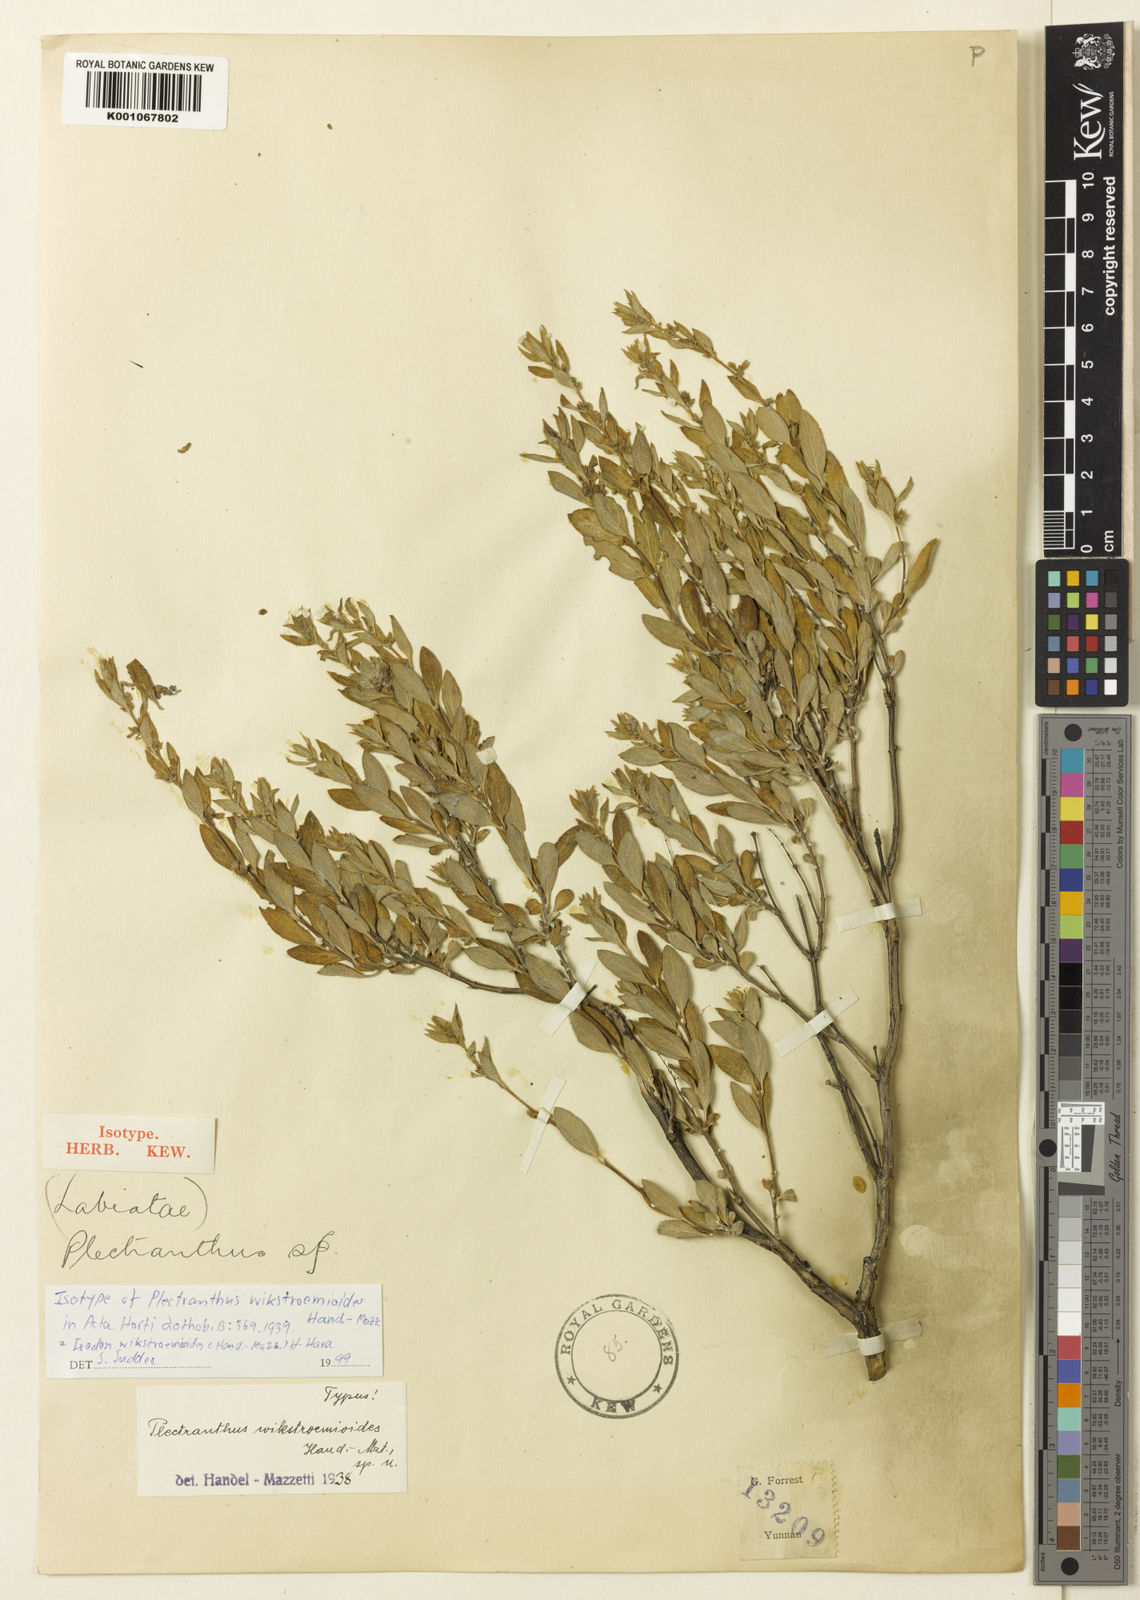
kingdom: Plantae
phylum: Tracheophyta
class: Magnoliopsida
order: Lamiales
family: Lamiaceae
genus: Isodon
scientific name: Isodon wikstroemioides
